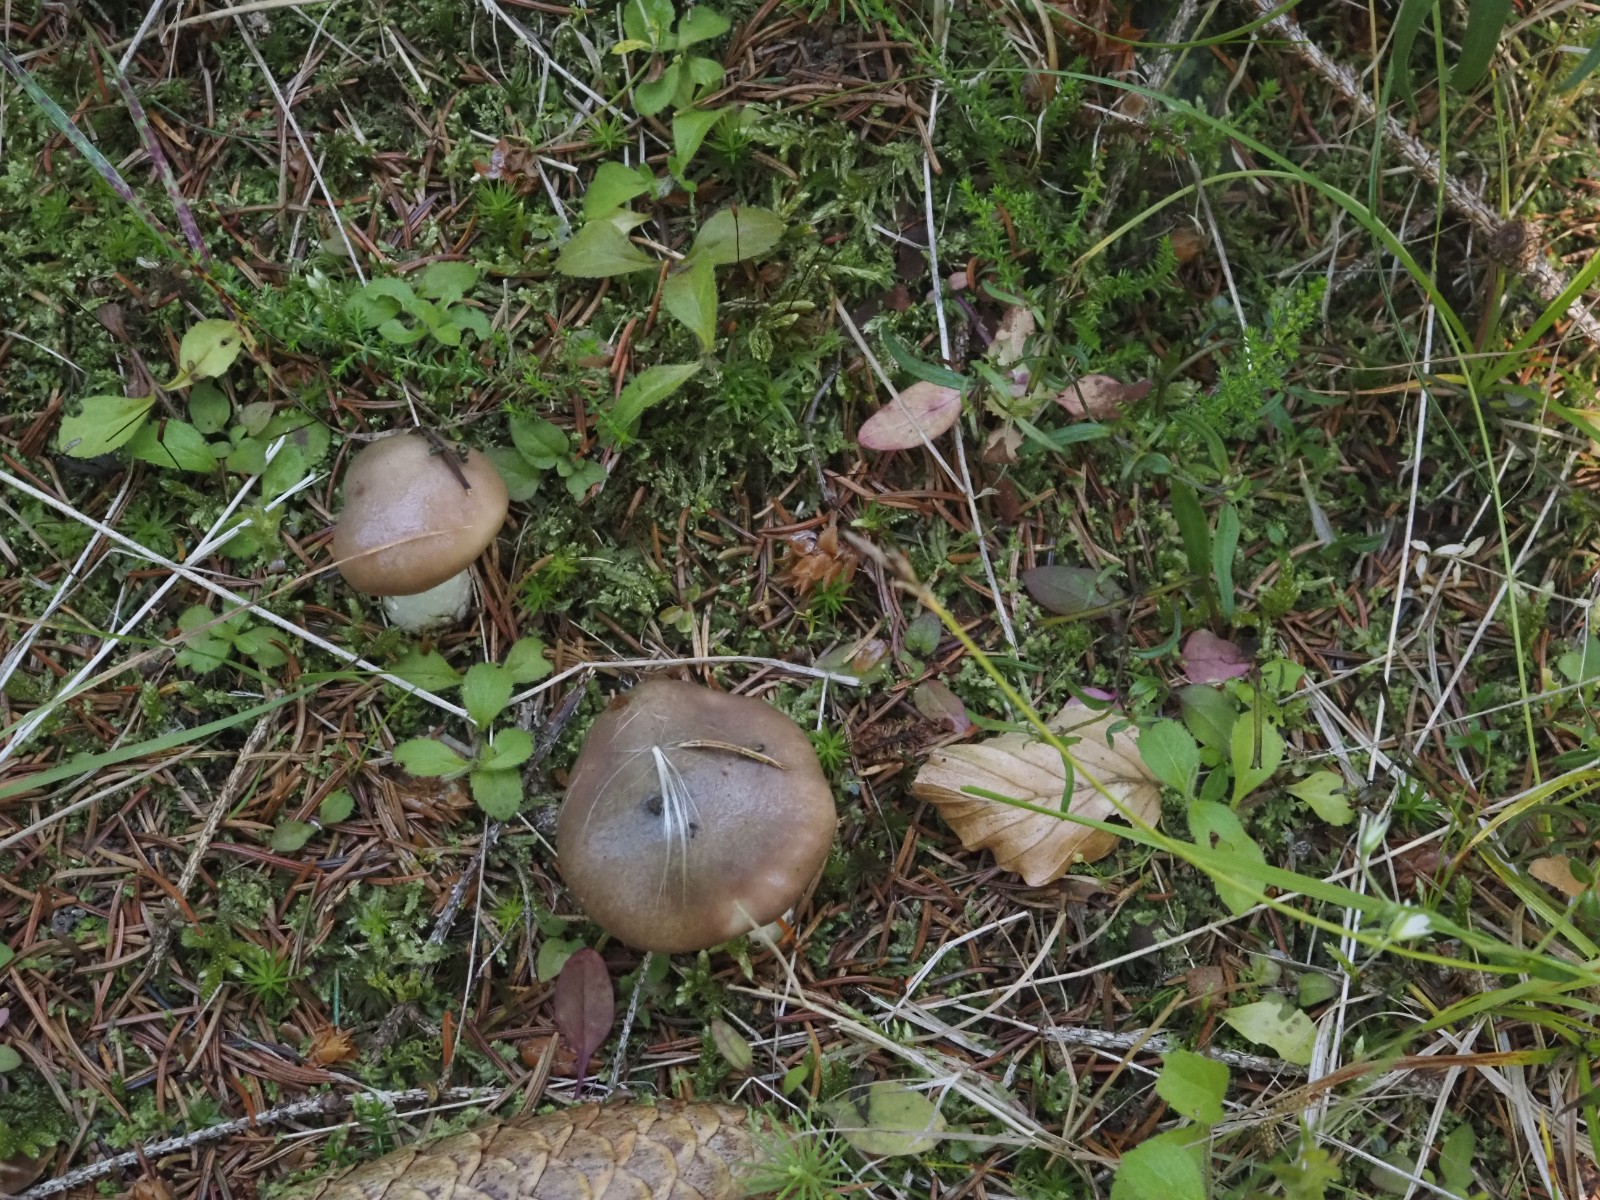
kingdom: Fungi
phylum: Basidiomycota
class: Agaricomycetes
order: Boletales
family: Gomphidiaceae
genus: Gomphidius
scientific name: Gomphidius glutinosus
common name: grå slimslør
